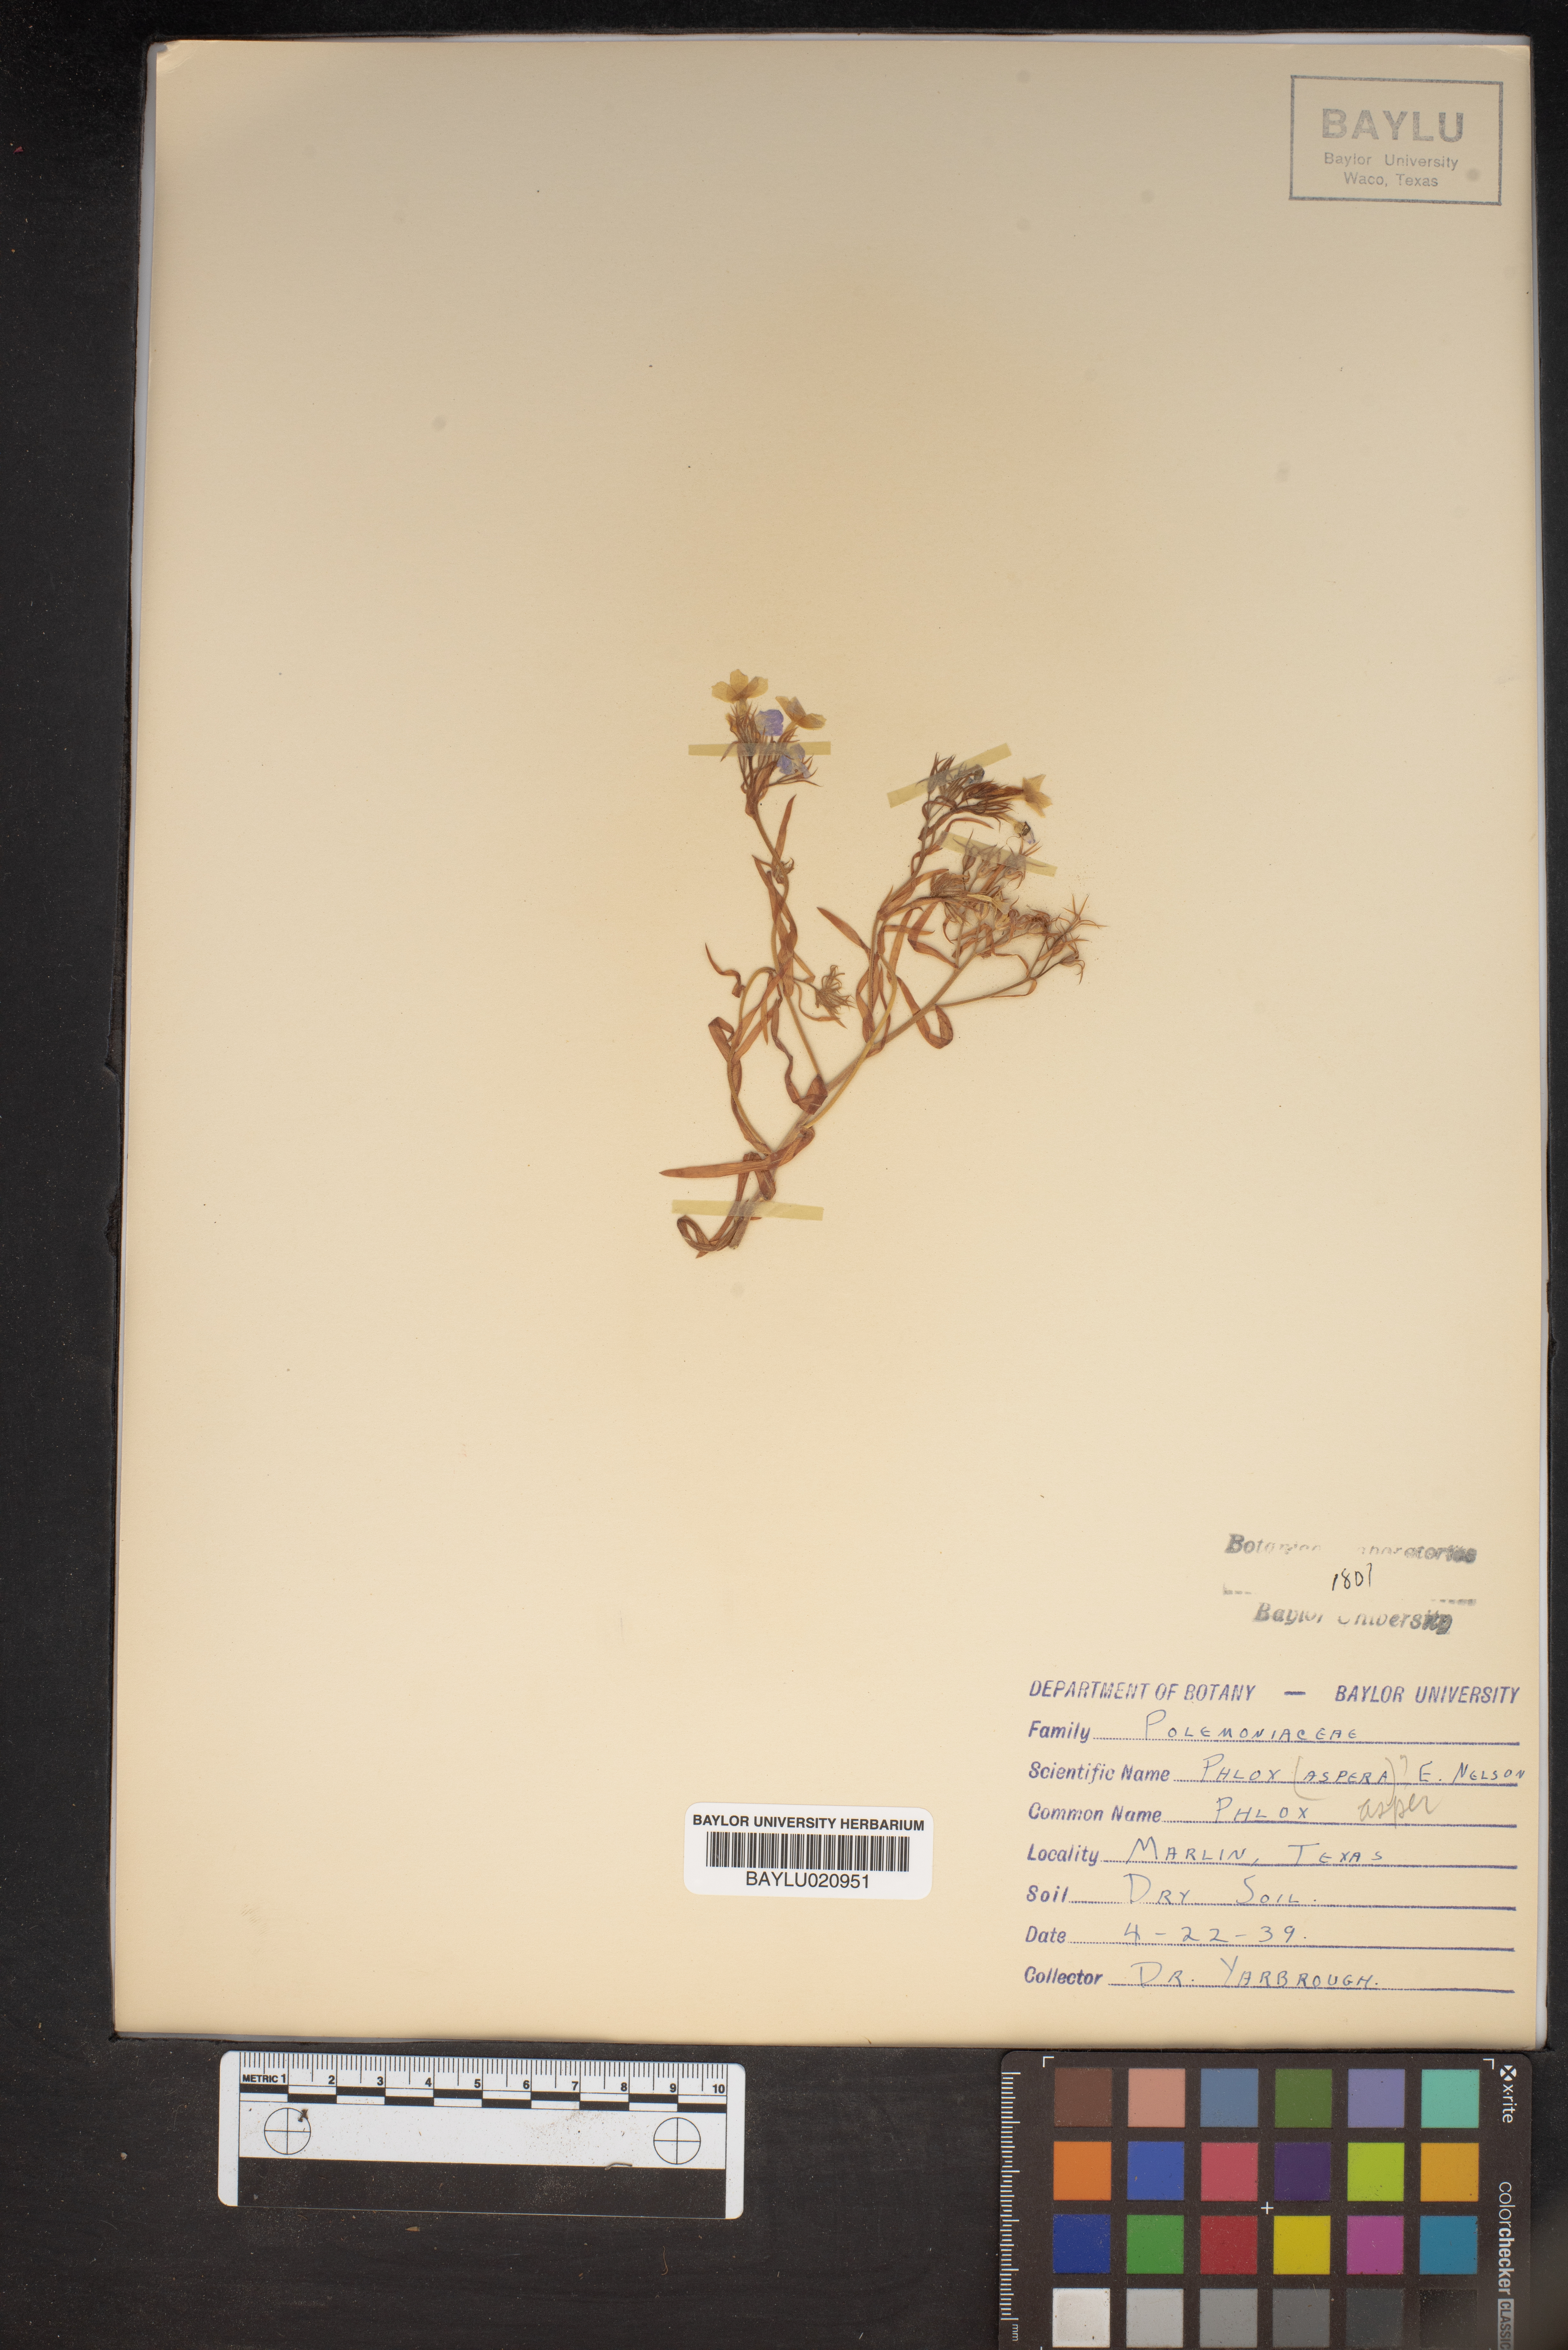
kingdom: Plantae
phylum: Tracheophyta
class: Magnoliopsida
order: Ericales
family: Polemoniaceae
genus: Phlox
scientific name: Phlox variabilis
